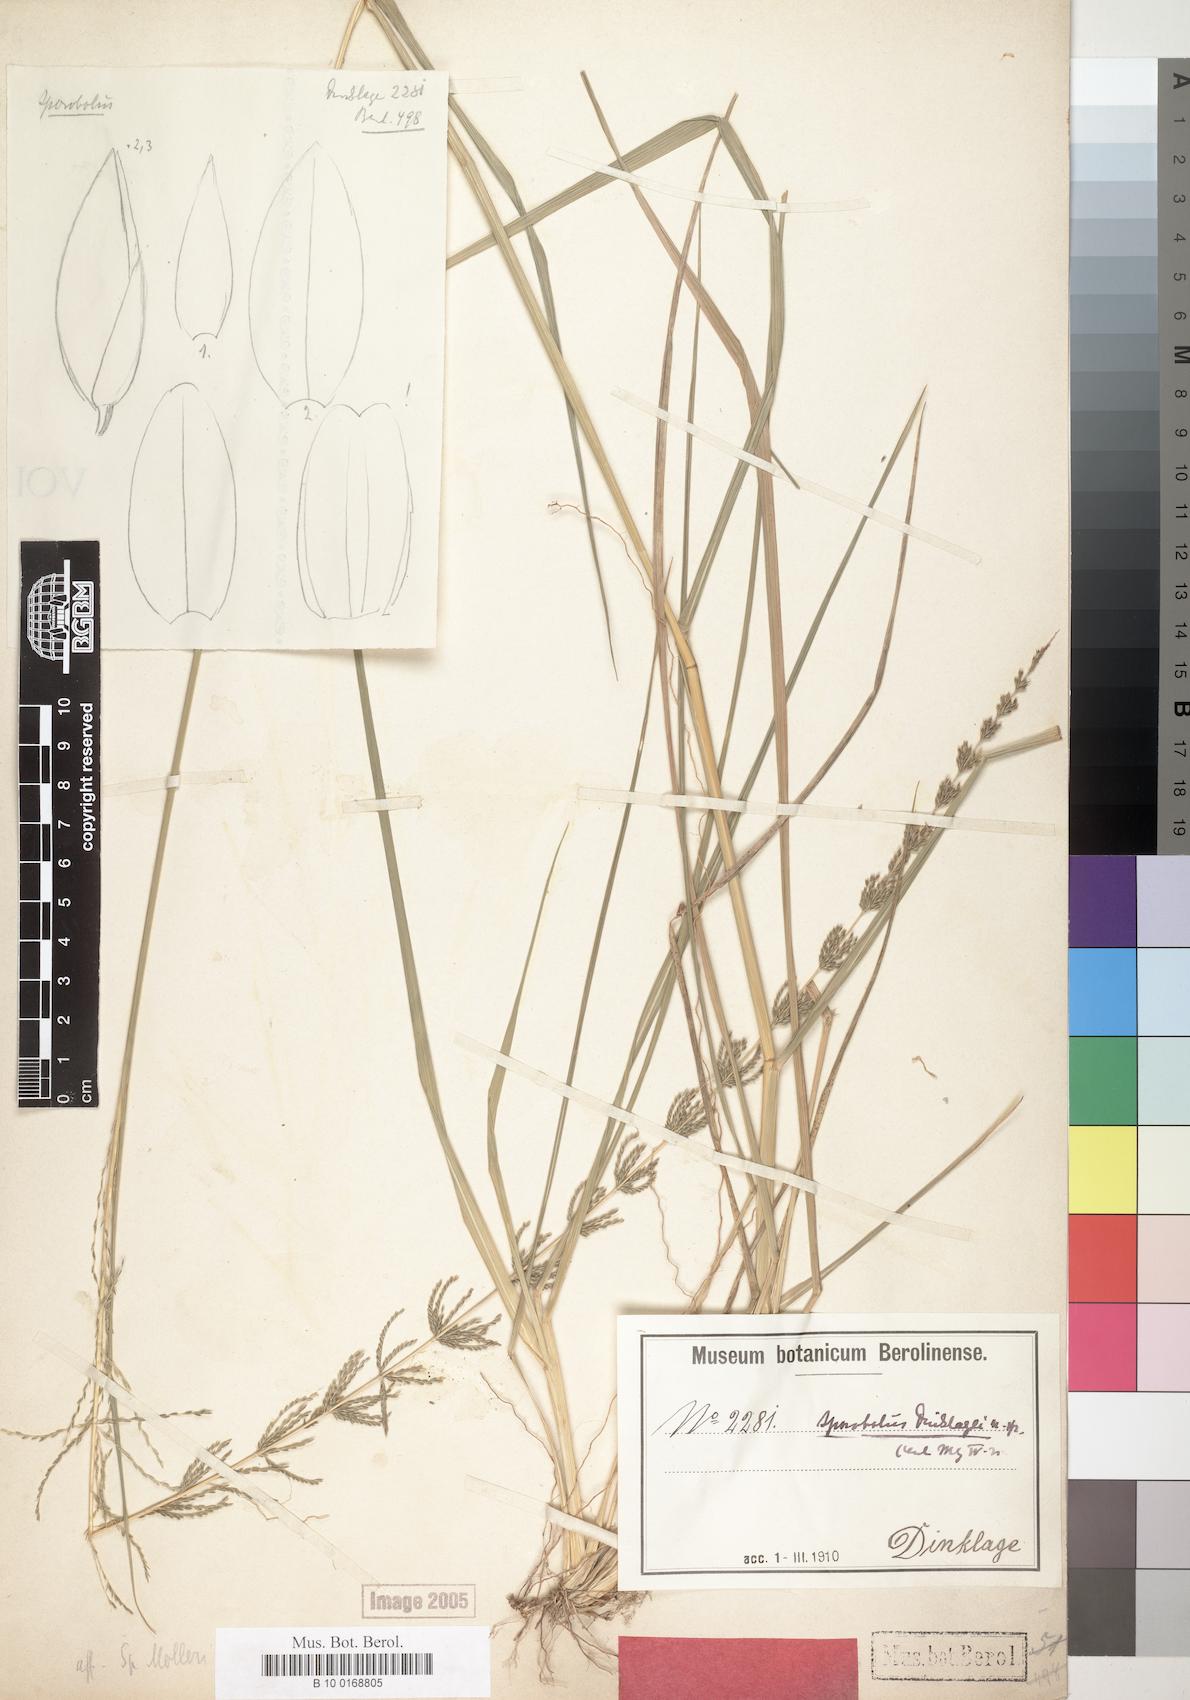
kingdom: Plantae
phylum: Tracheophyta
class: Liliopsida
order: Poales
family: Poaceae
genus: Sporobolus
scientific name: Sporobolus dinklagei
